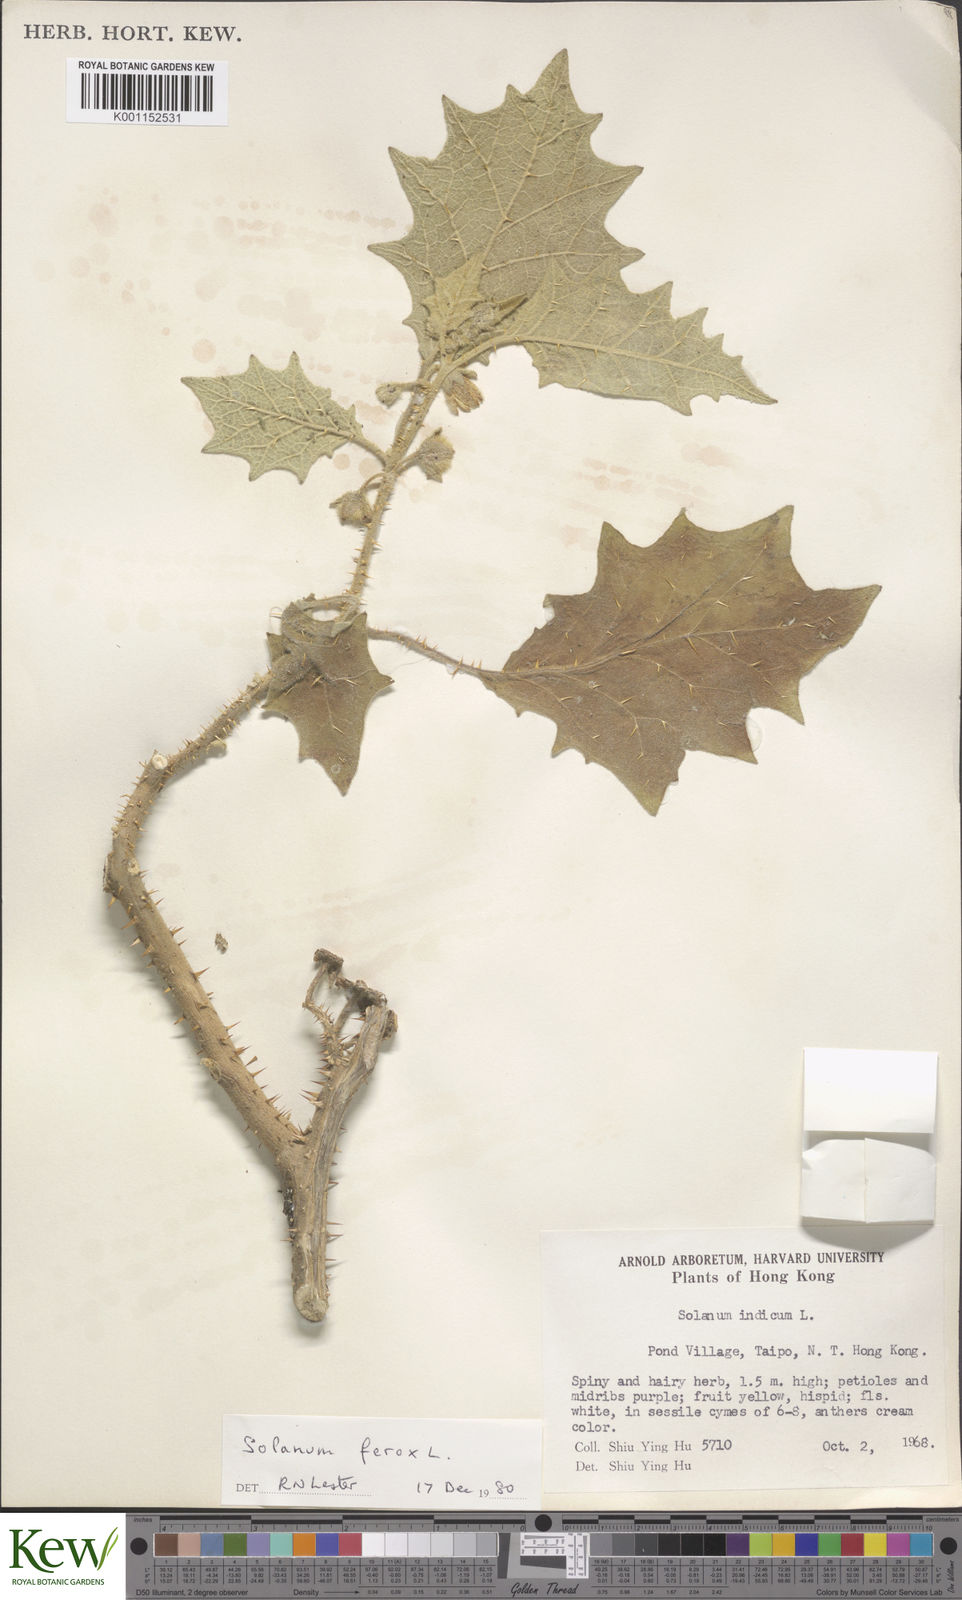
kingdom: Plantae
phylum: Tracheophyta
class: Magnoliopsida
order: Solanales
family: Solanaceae
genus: Solanum
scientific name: Solanum lasiocarpum
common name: Indian nightshade
